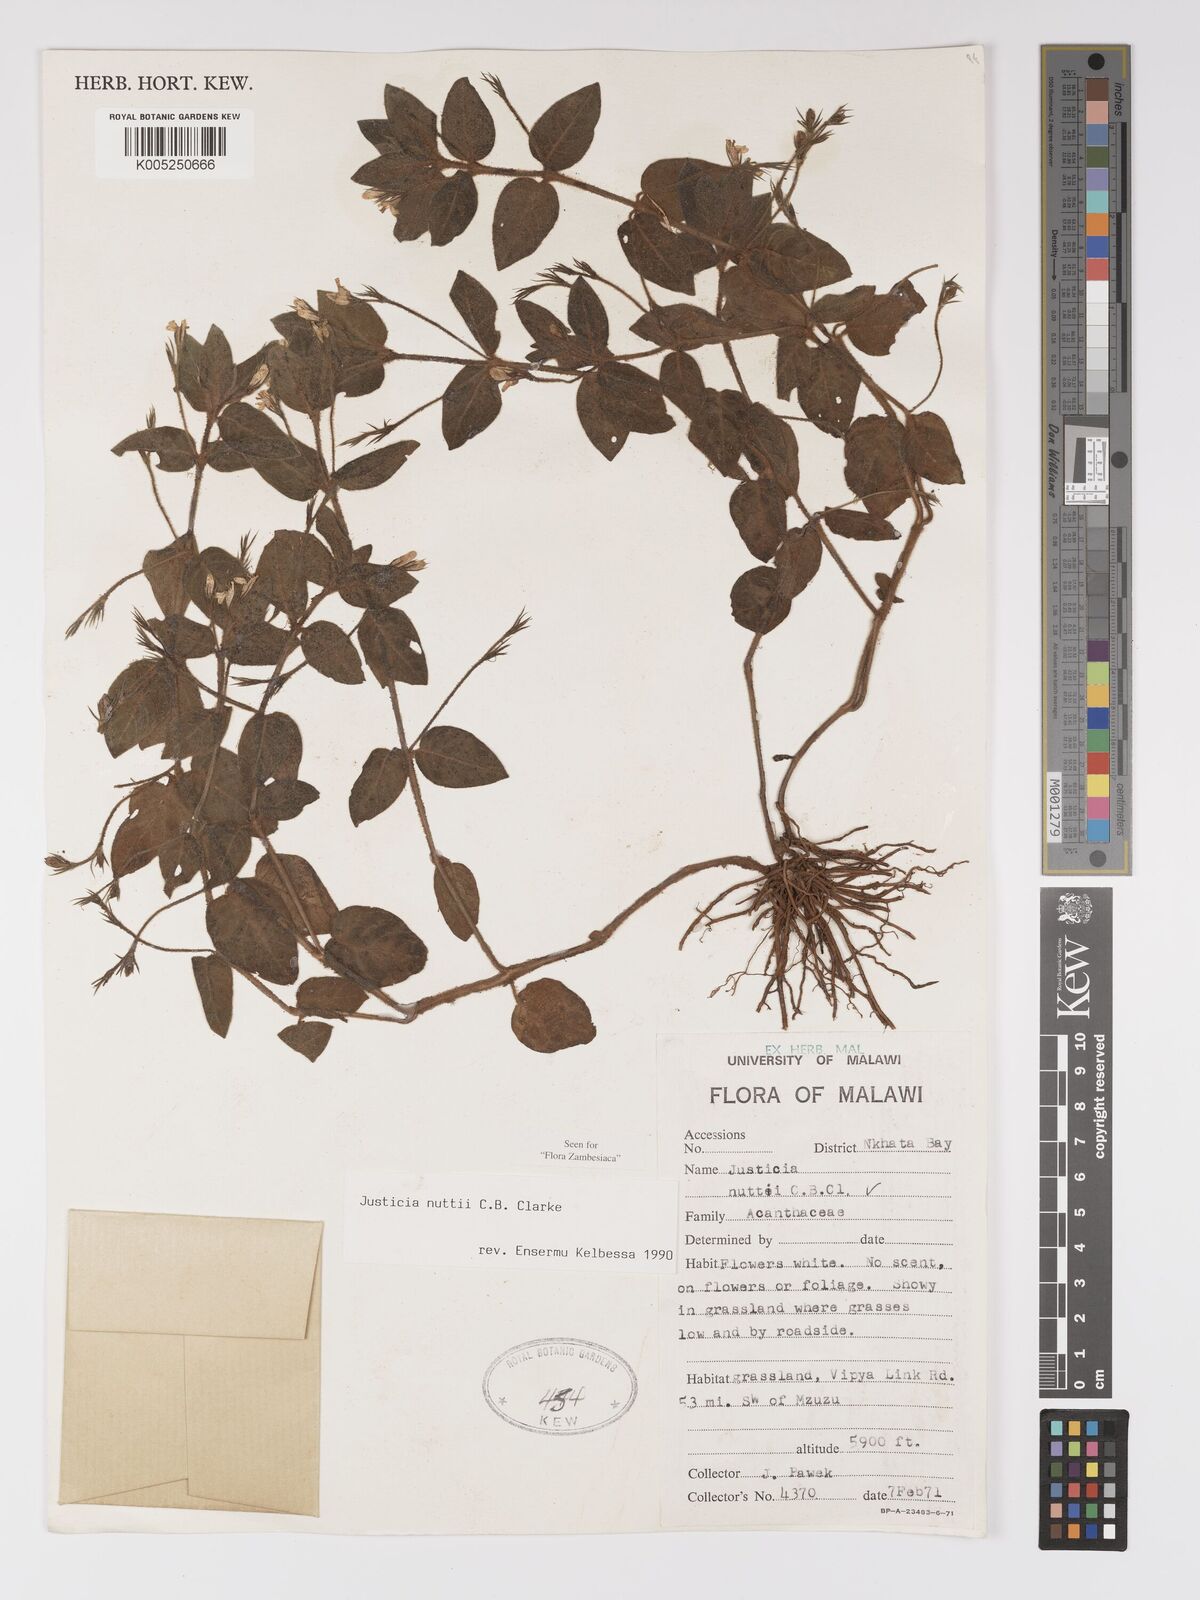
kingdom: Plantae
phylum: Tracheophyta
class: Magnoliopsida
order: Lamiales
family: Acanthaceae
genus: Justicia
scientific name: Justicia nuttii
